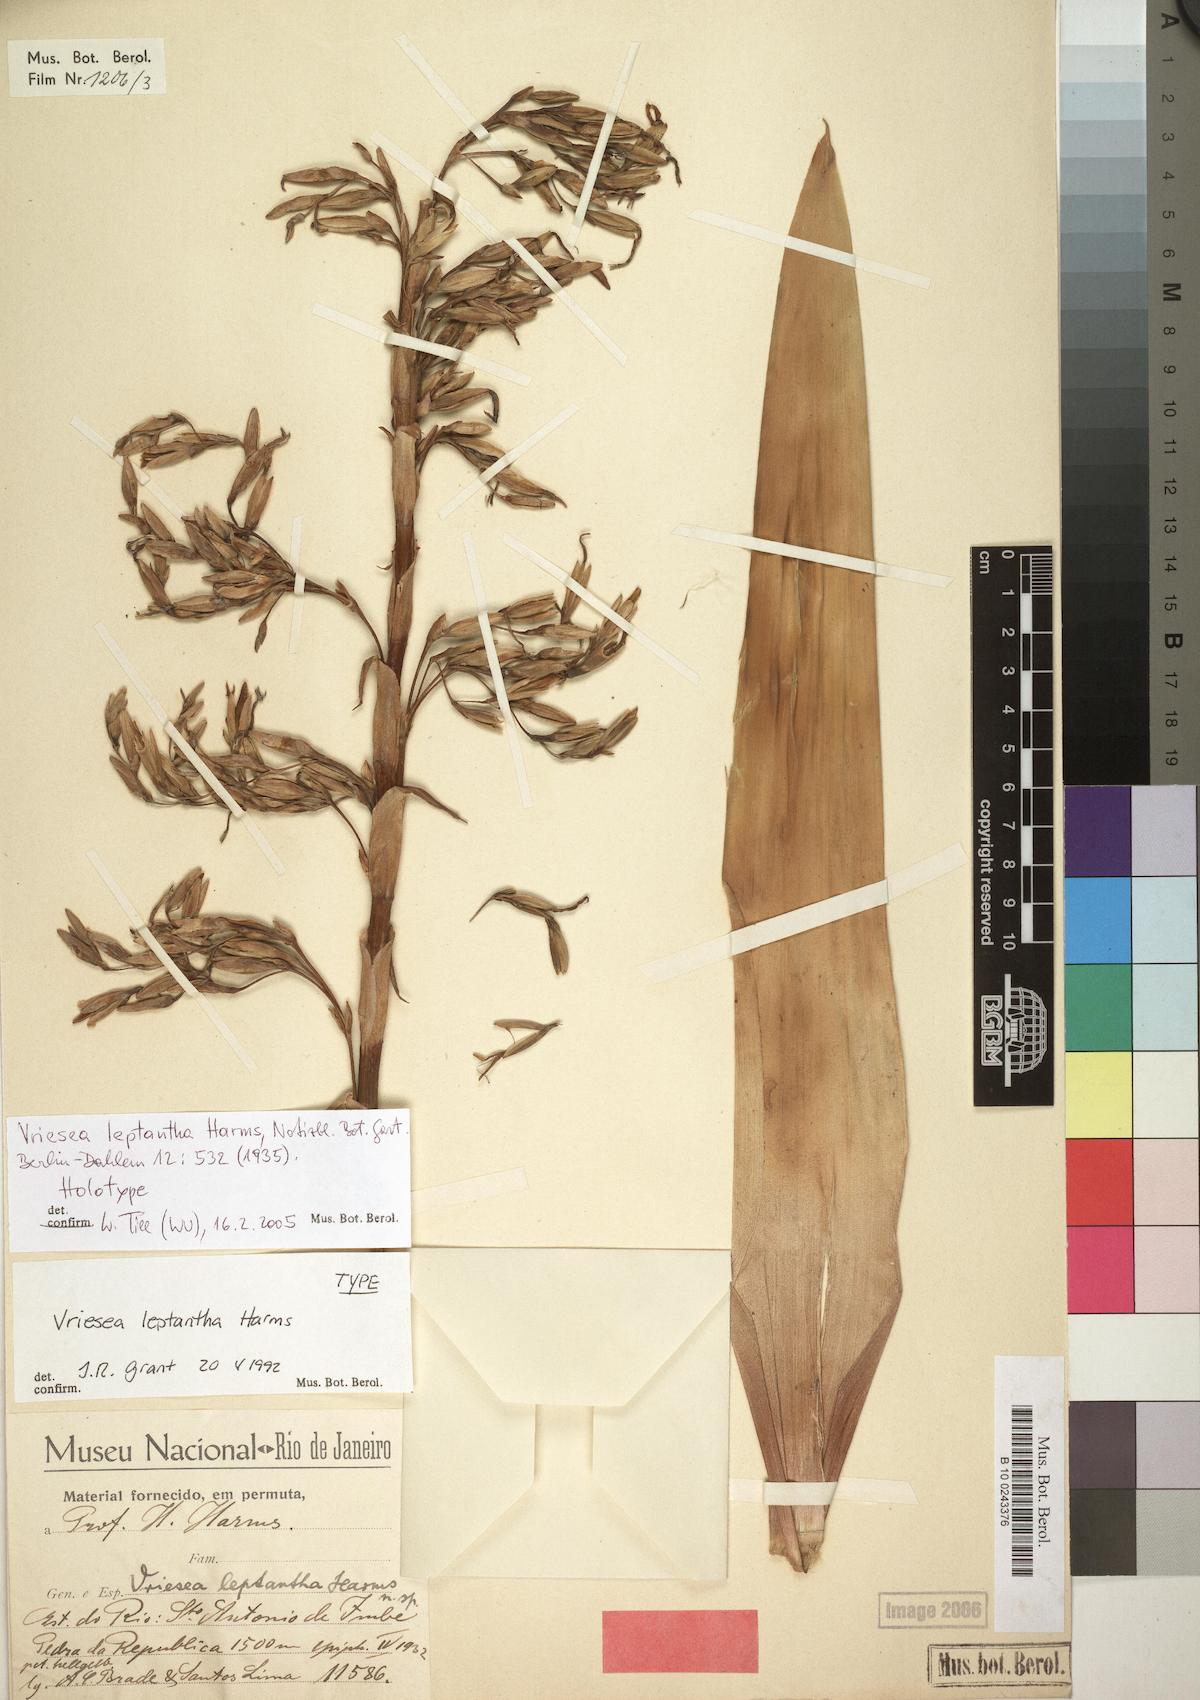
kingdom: Plantae
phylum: Tracheophyta
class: Liliopsida
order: Poales
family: Bromeliaceae
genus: Vriesea
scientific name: Vriesea leptantha
